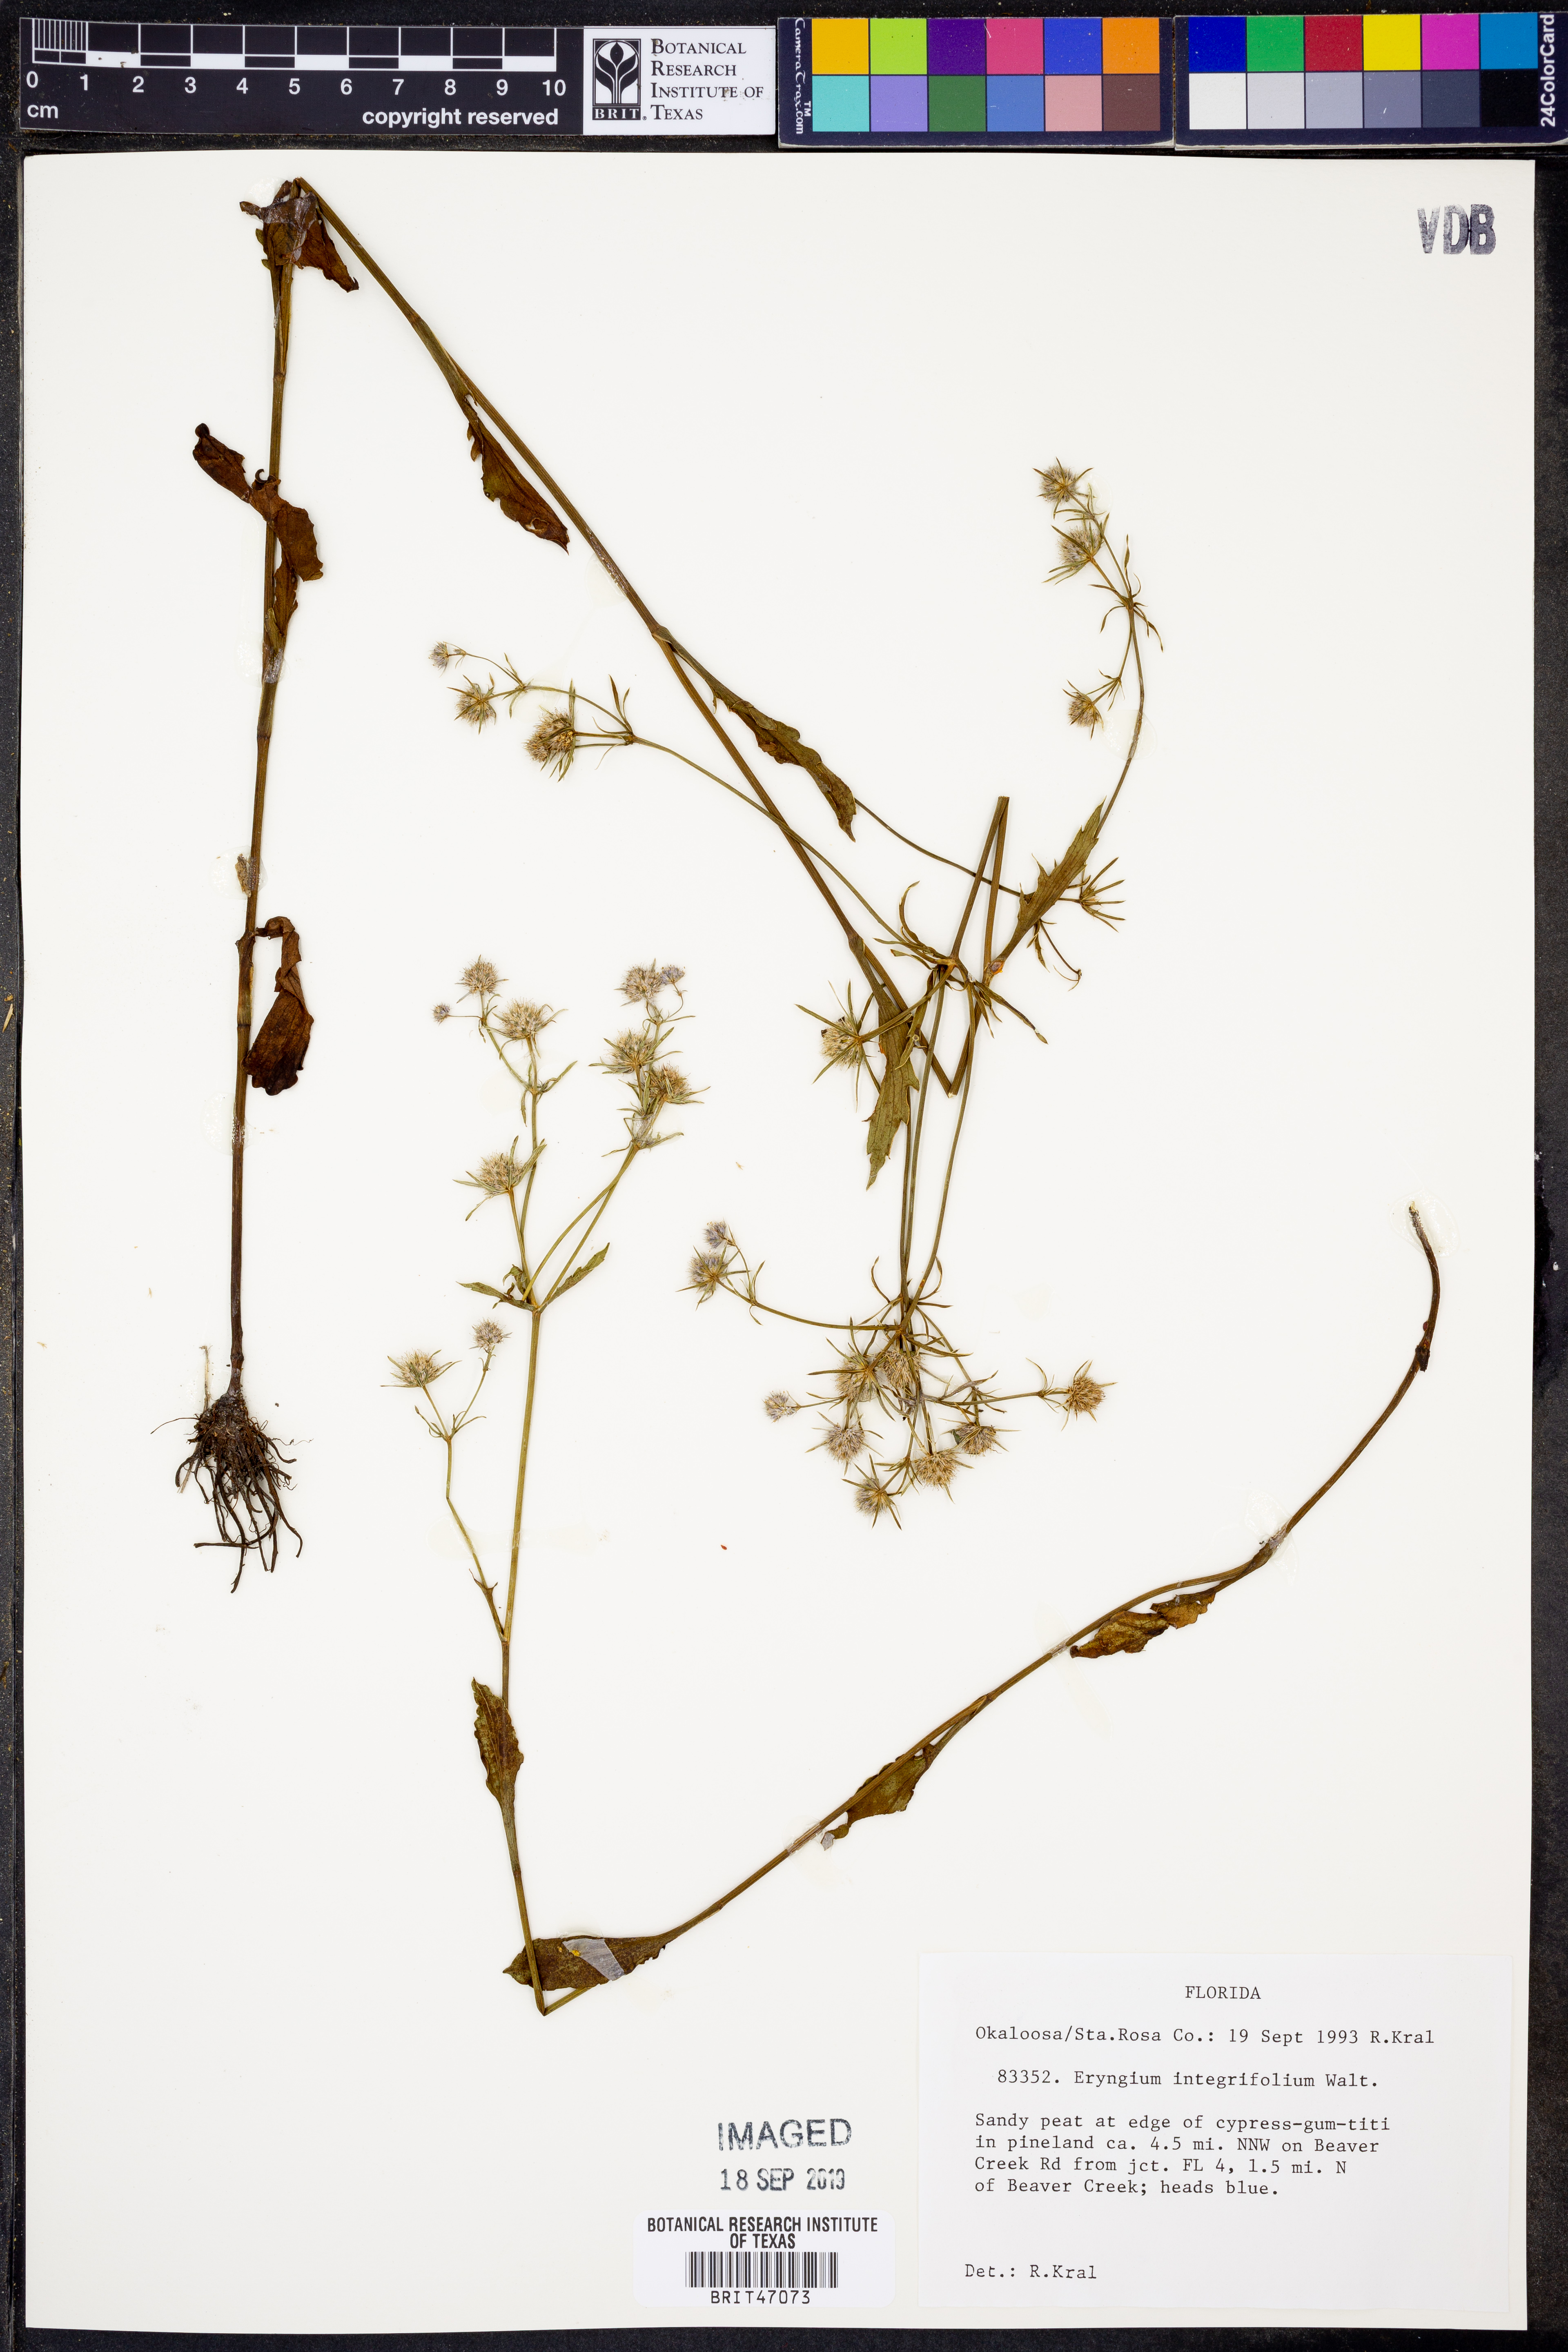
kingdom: Plantae
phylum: Tracheophyta
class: Magnoliopsida
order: Apiales
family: Apiaceae
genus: Eryngium
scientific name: Eryngium integrifolium
